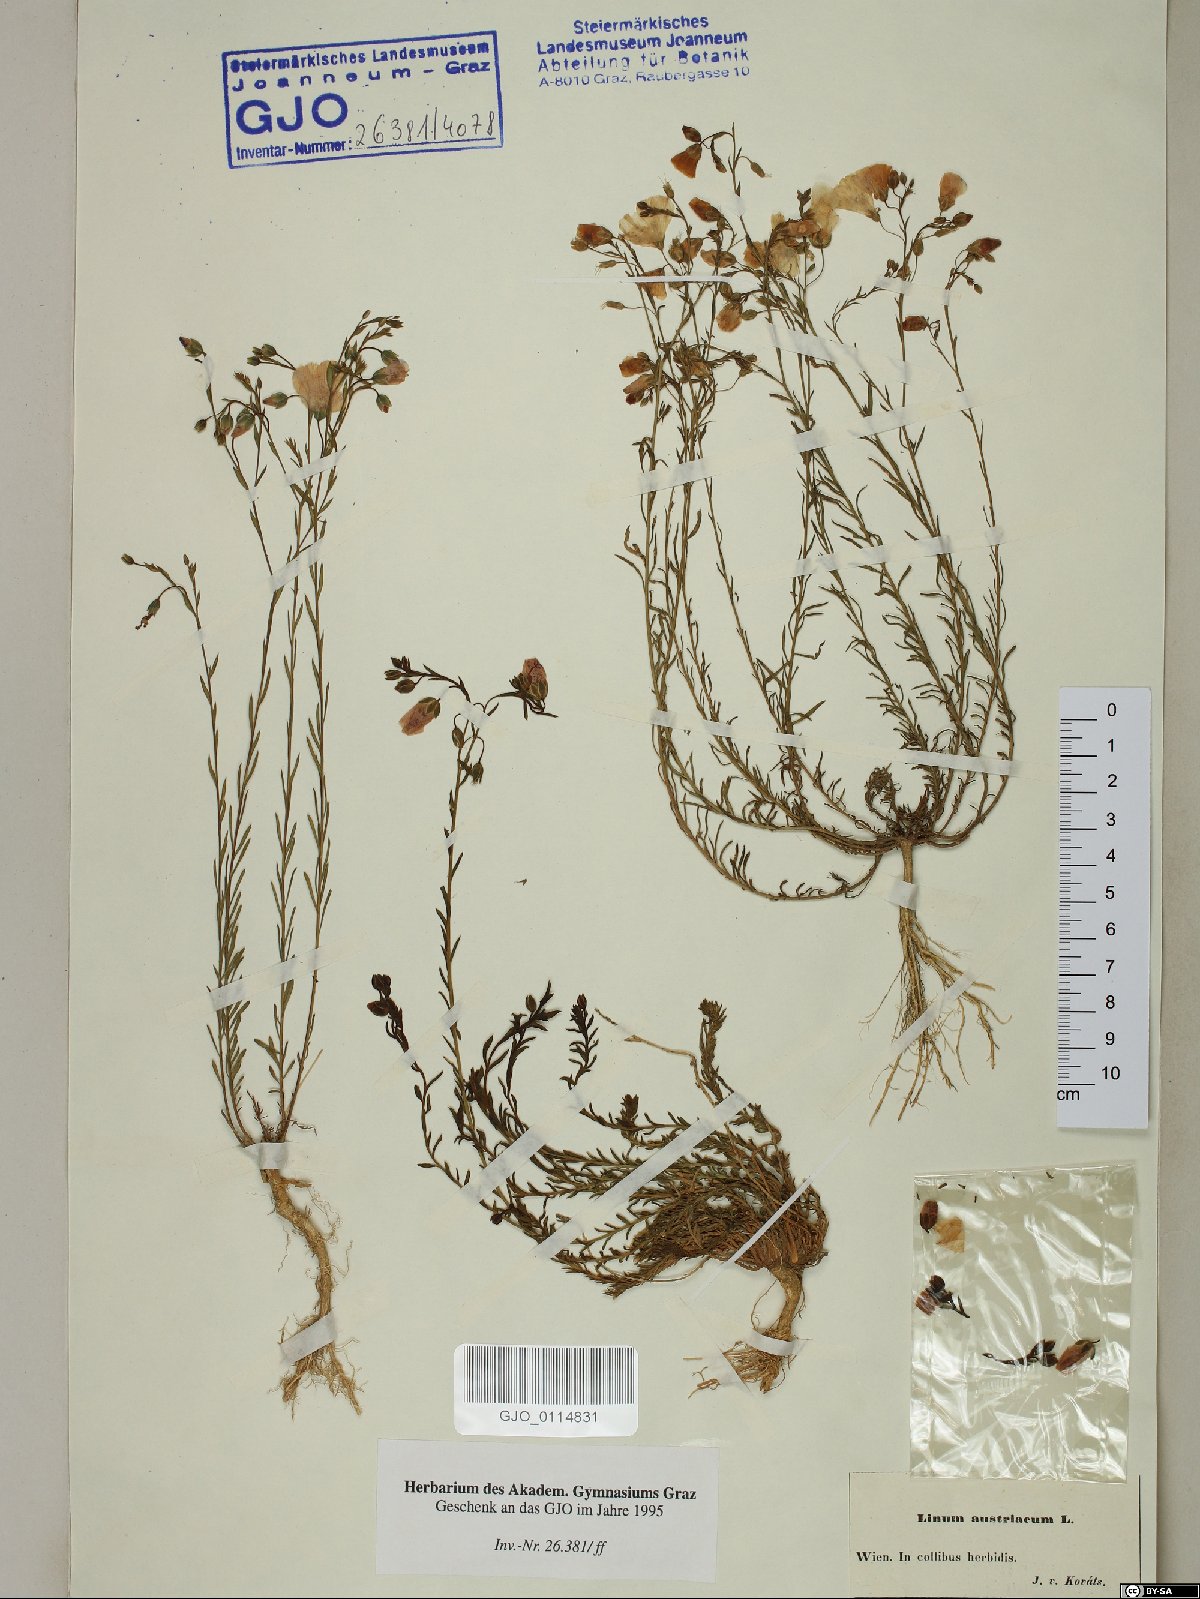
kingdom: Plantae
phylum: Tracheophyta
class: Magnoliopsida
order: Malpighiales
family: Linaceae
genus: Linum
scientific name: Linum austriacum
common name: Austrian flax
